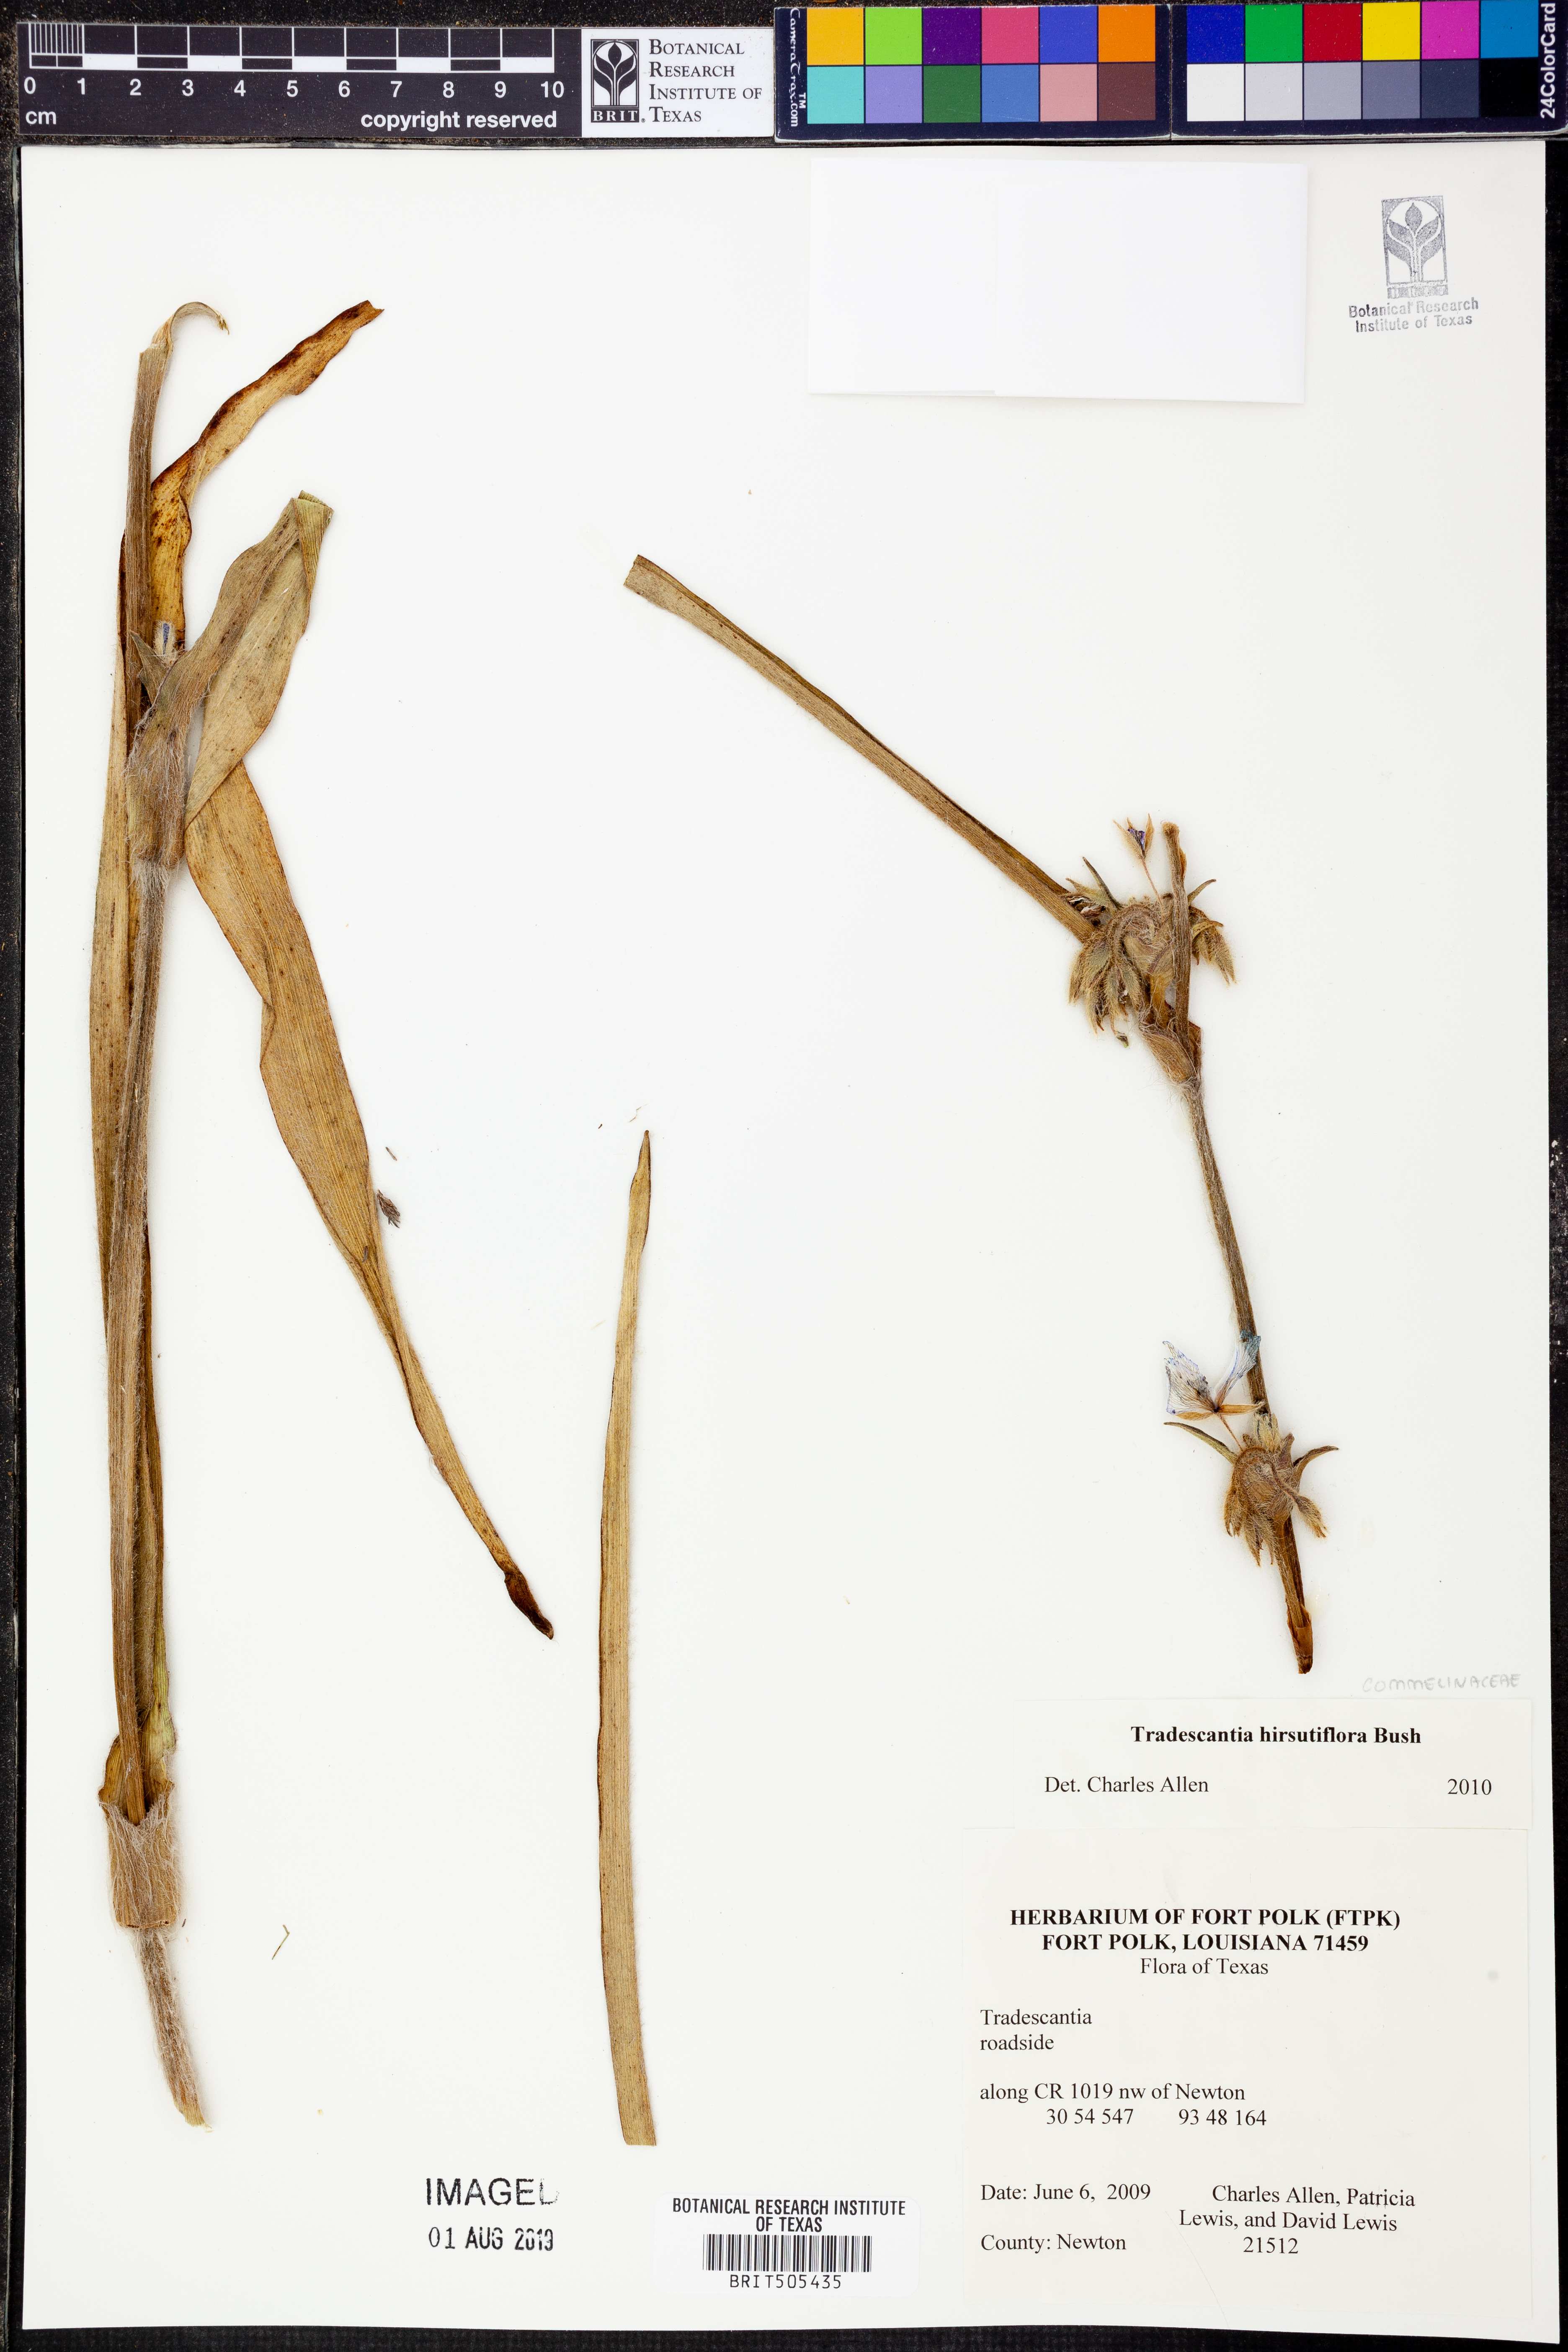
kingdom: Plantae
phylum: Tracheophyta
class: Liliopsida
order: Commelinales
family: Commelinaceae
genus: Tradescantia
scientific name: Tradescantia hirsutiflora
